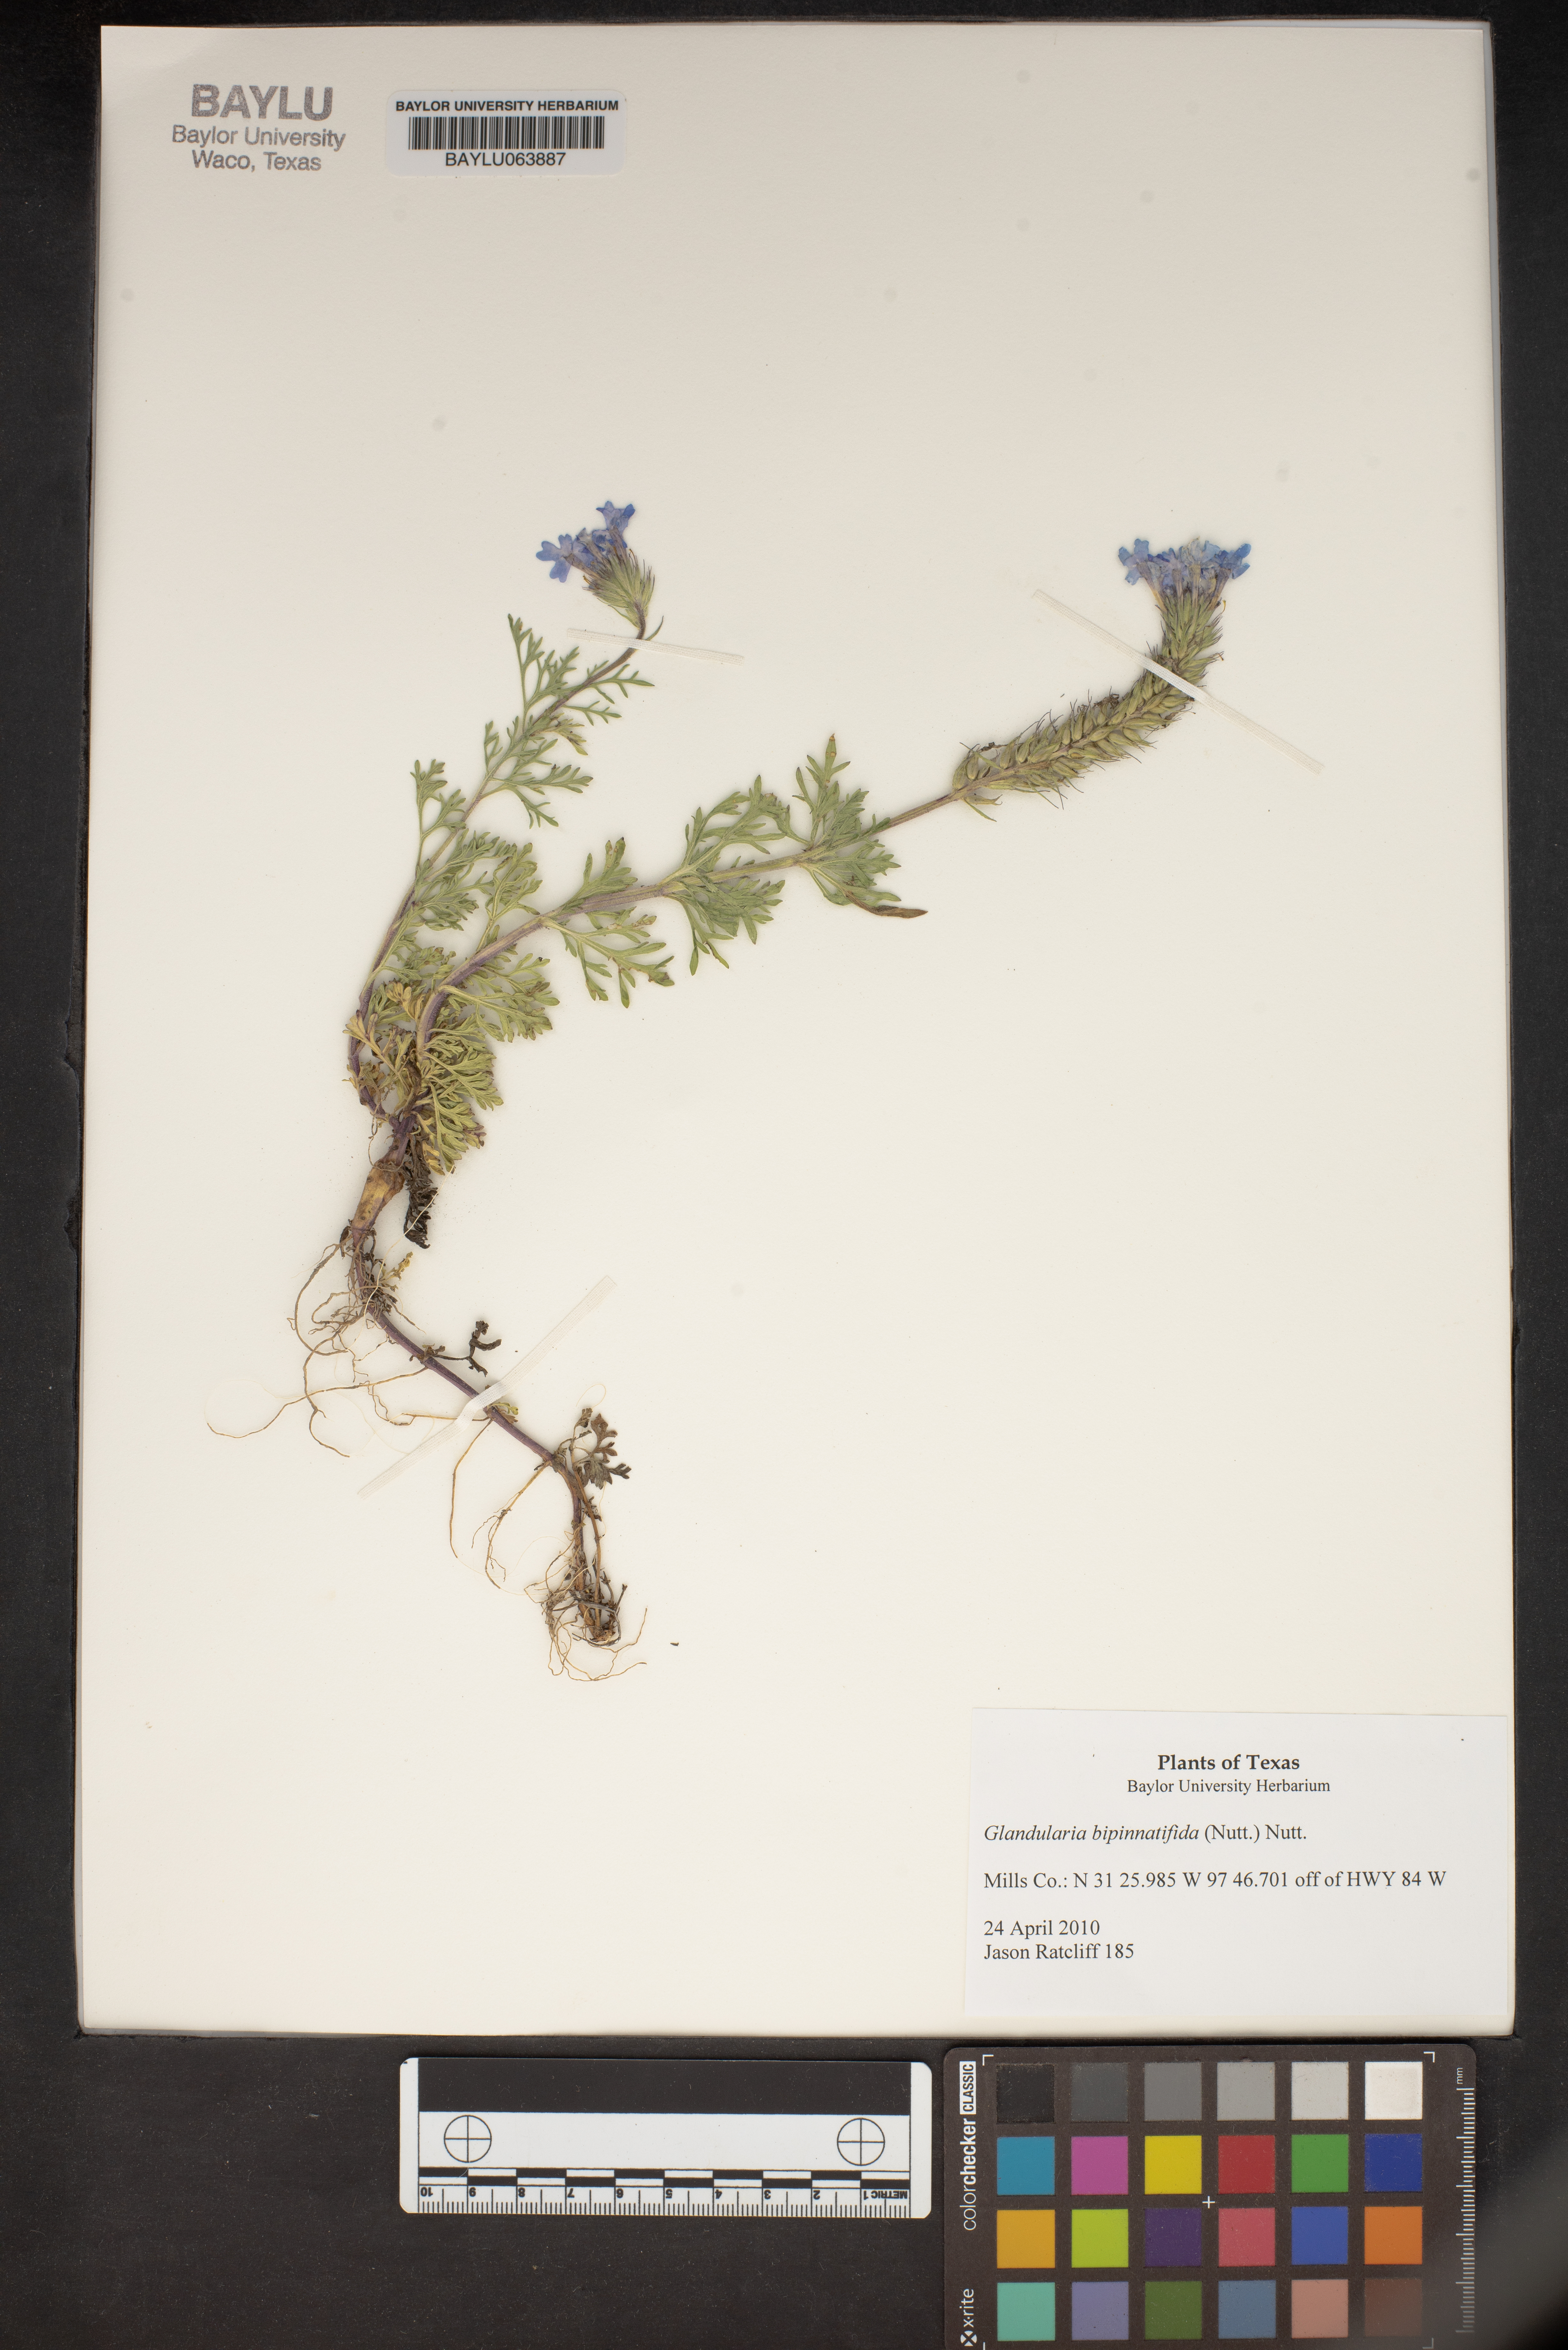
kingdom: Plantae
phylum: Tracheophyta
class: Magnoliopsida
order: Lamiales
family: Verbenaceae
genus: Verbena
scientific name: Verbena bipinnatifida
